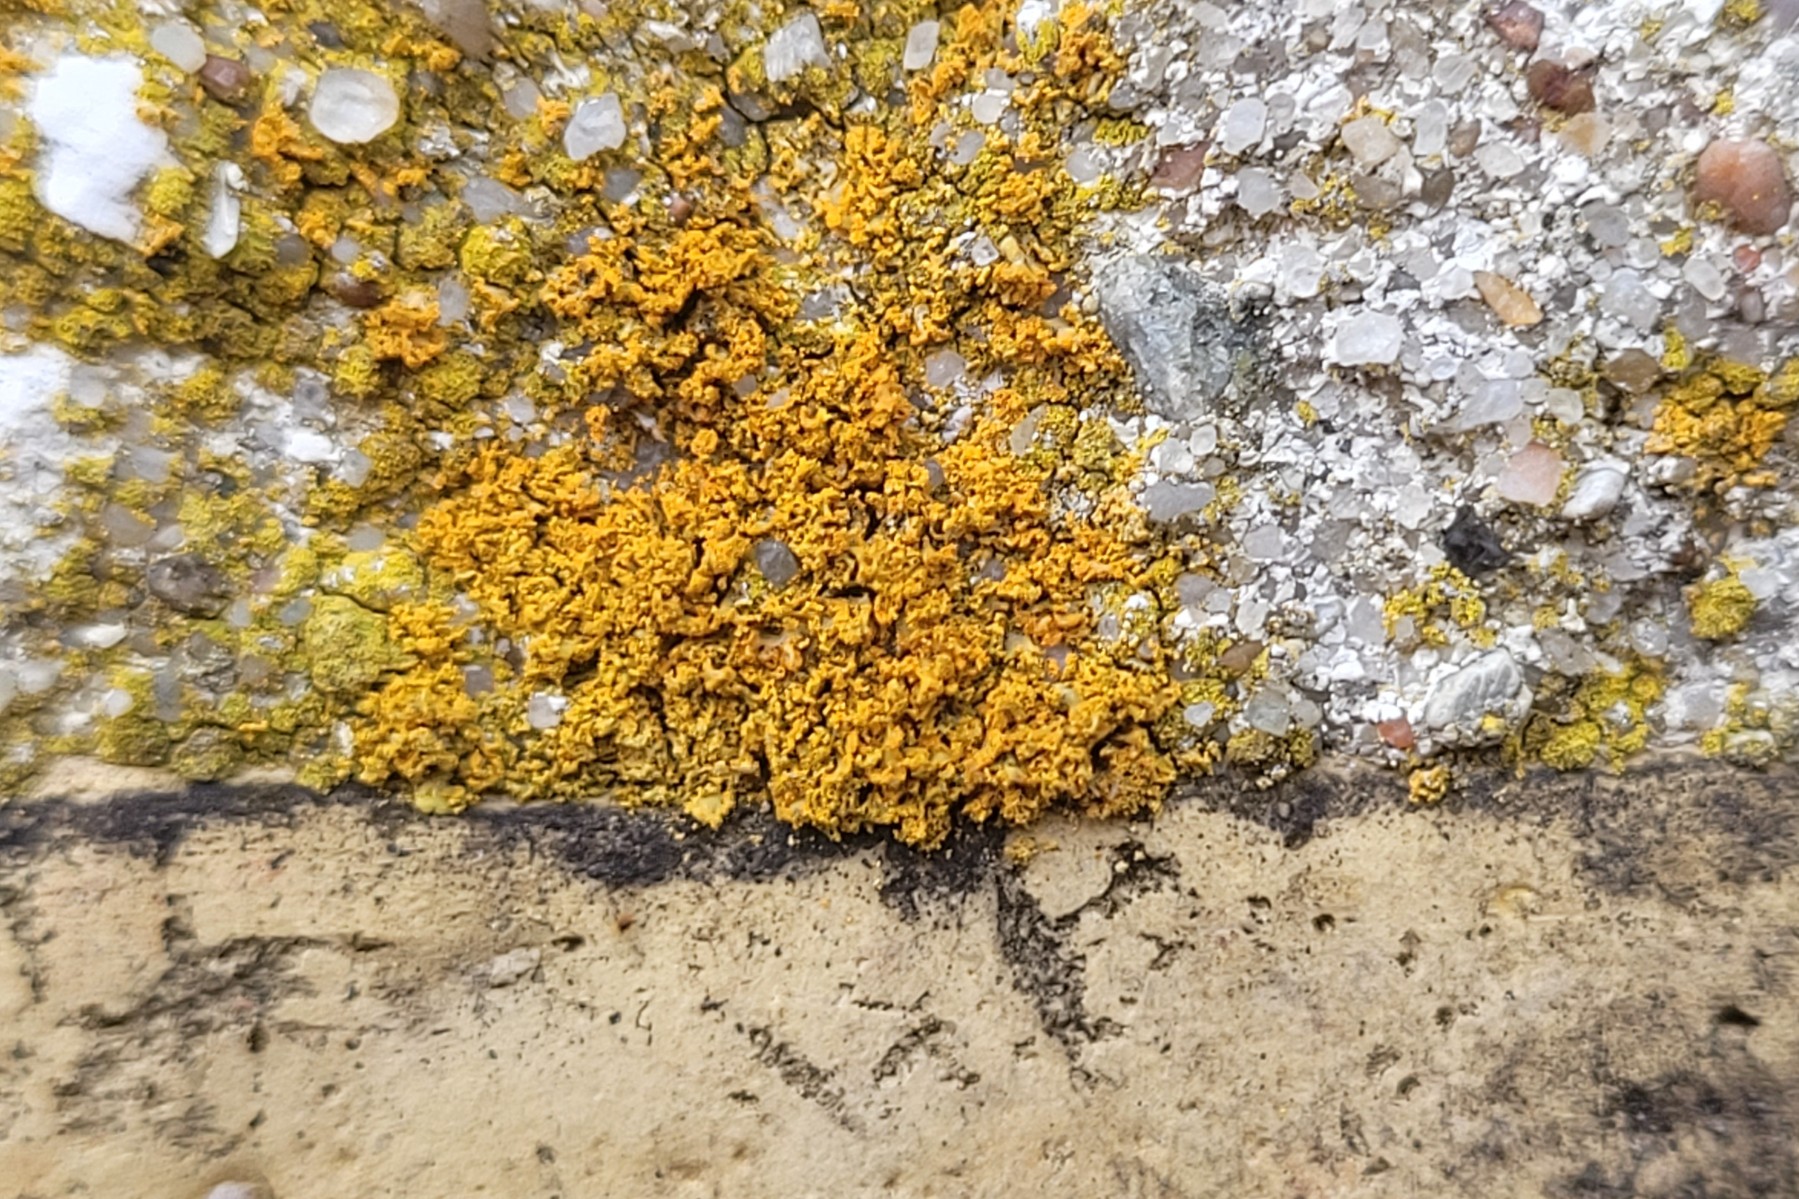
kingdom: Fungi
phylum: Ascomycota
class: Lecanoromycetes
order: Teloschistales
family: Teloschistaceae
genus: Polycauliona
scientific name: Polycauliona candelaria
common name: tue-orangelav
